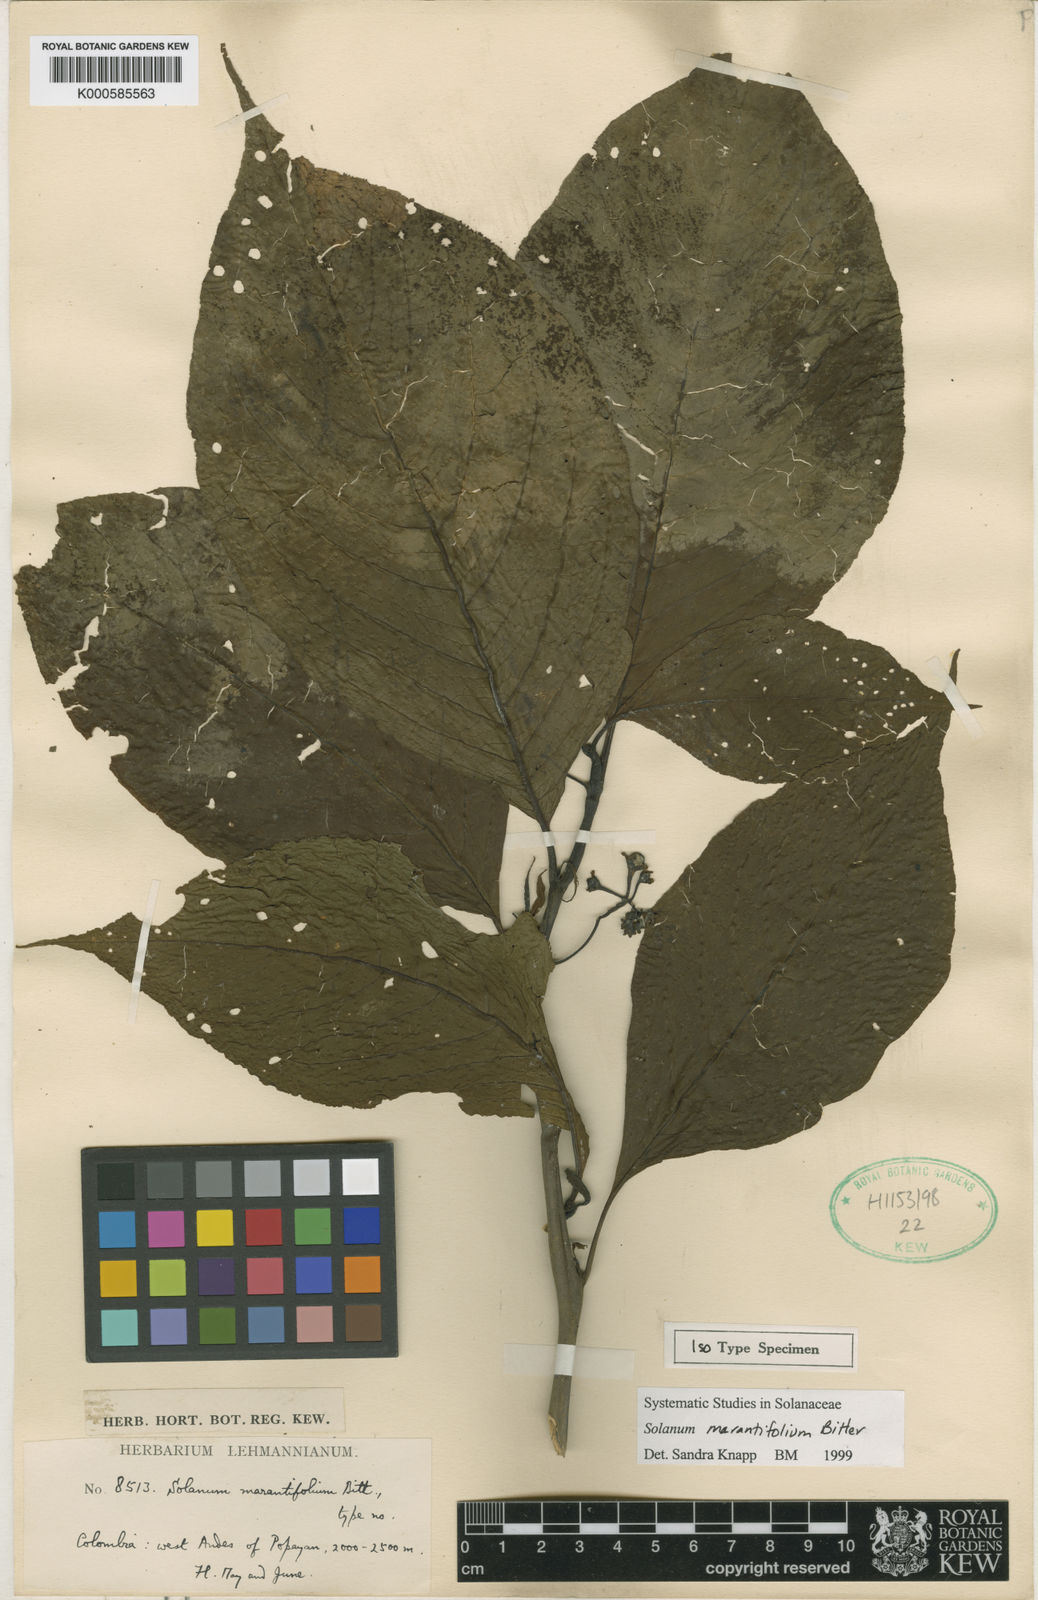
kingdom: Plantae
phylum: Tracheophyta
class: Magnoliopsida
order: Solanales
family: Solanaceae
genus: Solanum
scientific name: Solanum marantifolium
